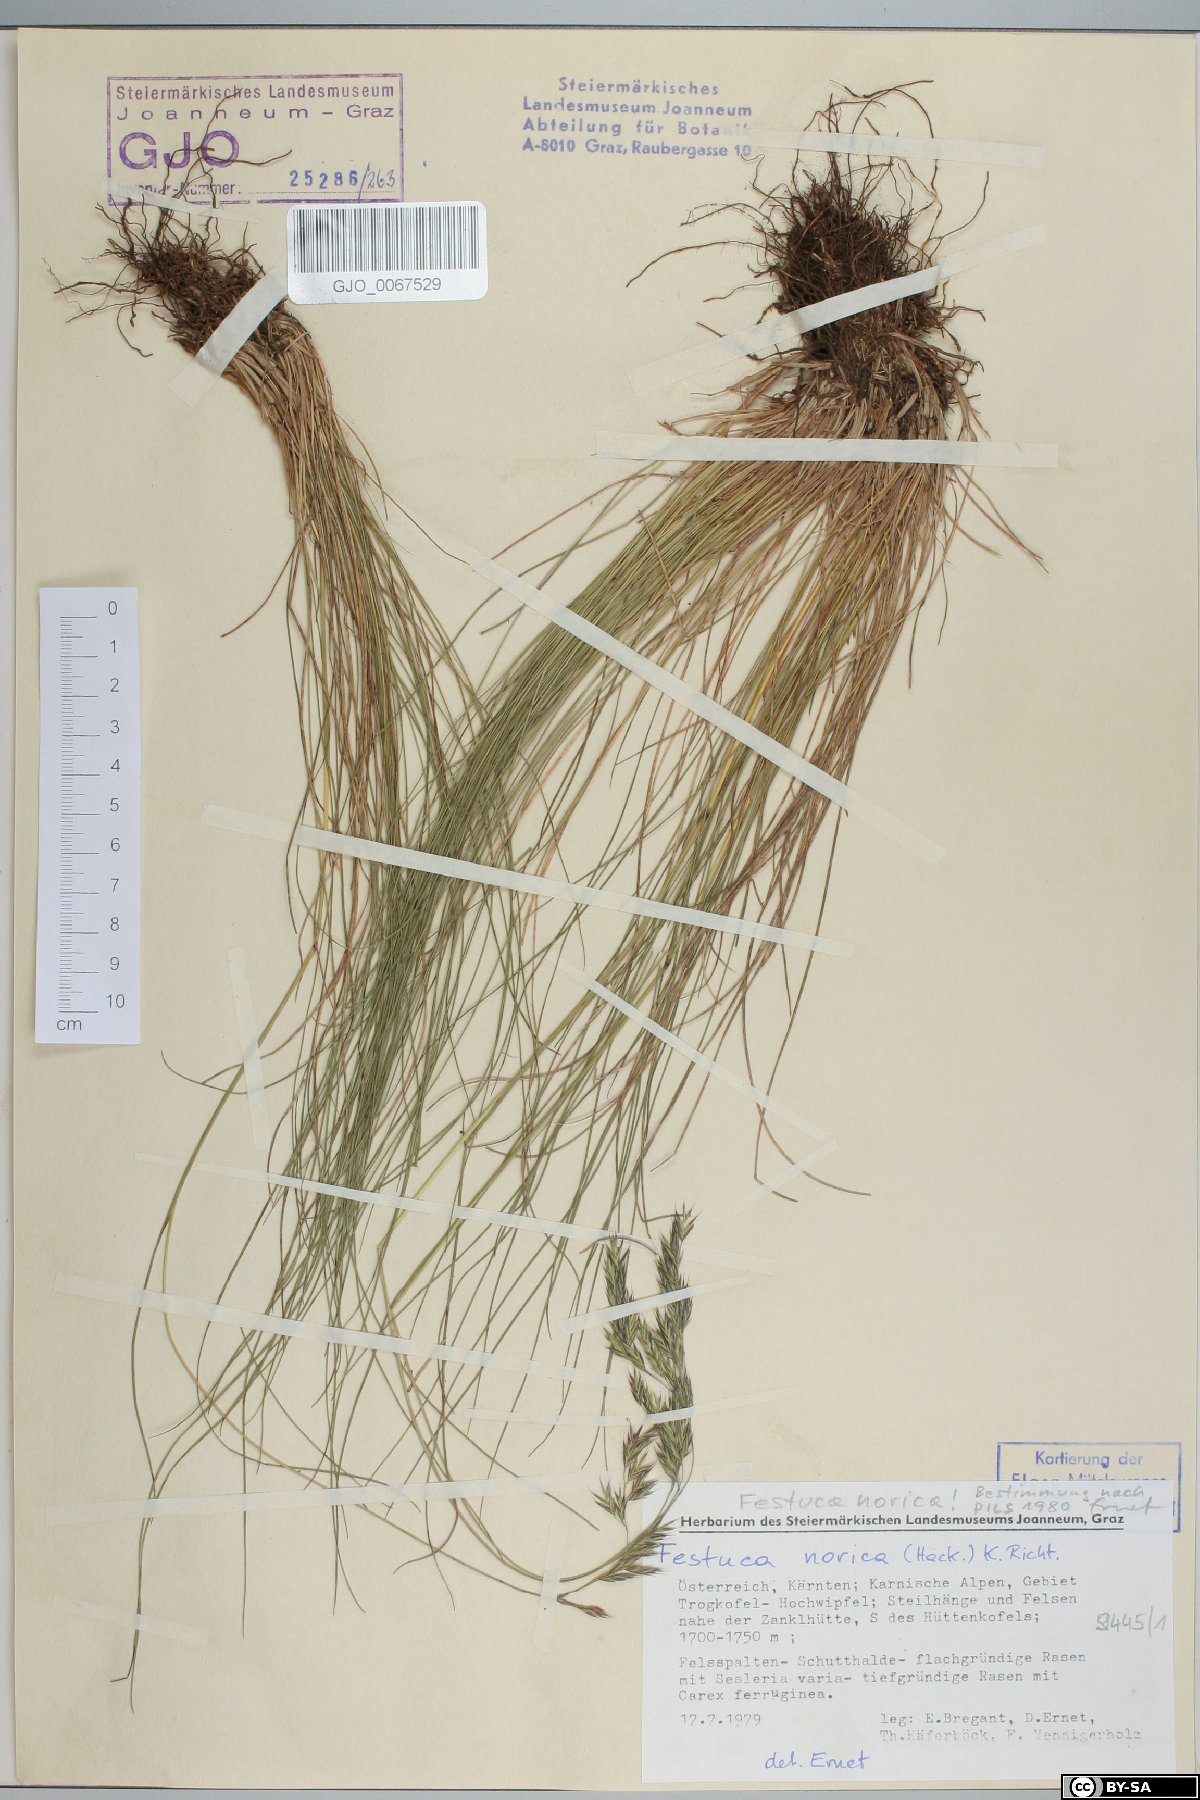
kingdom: Plantae
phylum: Tracheophyta
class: Liliopsida
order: Poales
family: Poaceae
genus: Festuca
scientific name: Festuca norica
